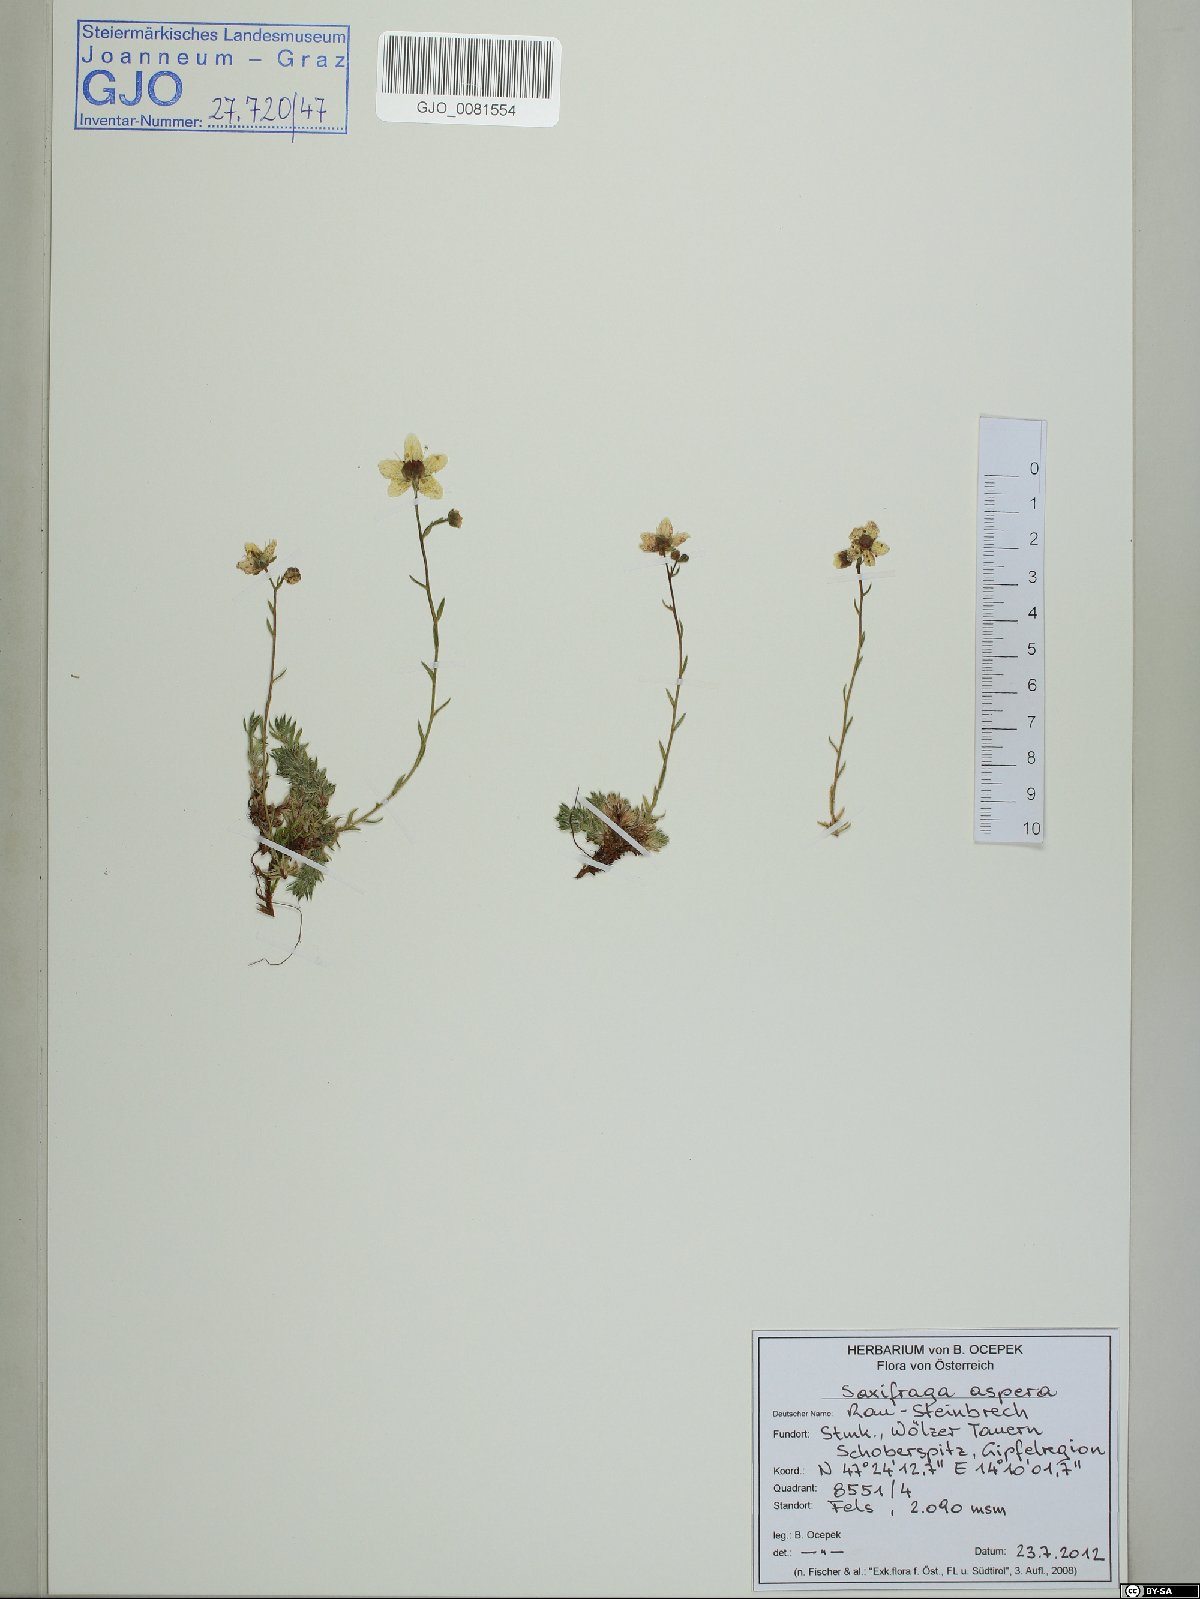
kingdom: Plantae
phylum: Tracheophyta
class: Magnoliopsida
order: Saxifragales
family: Saxifragaceae
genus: Saxifraga
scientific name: Saxifraga aspera
